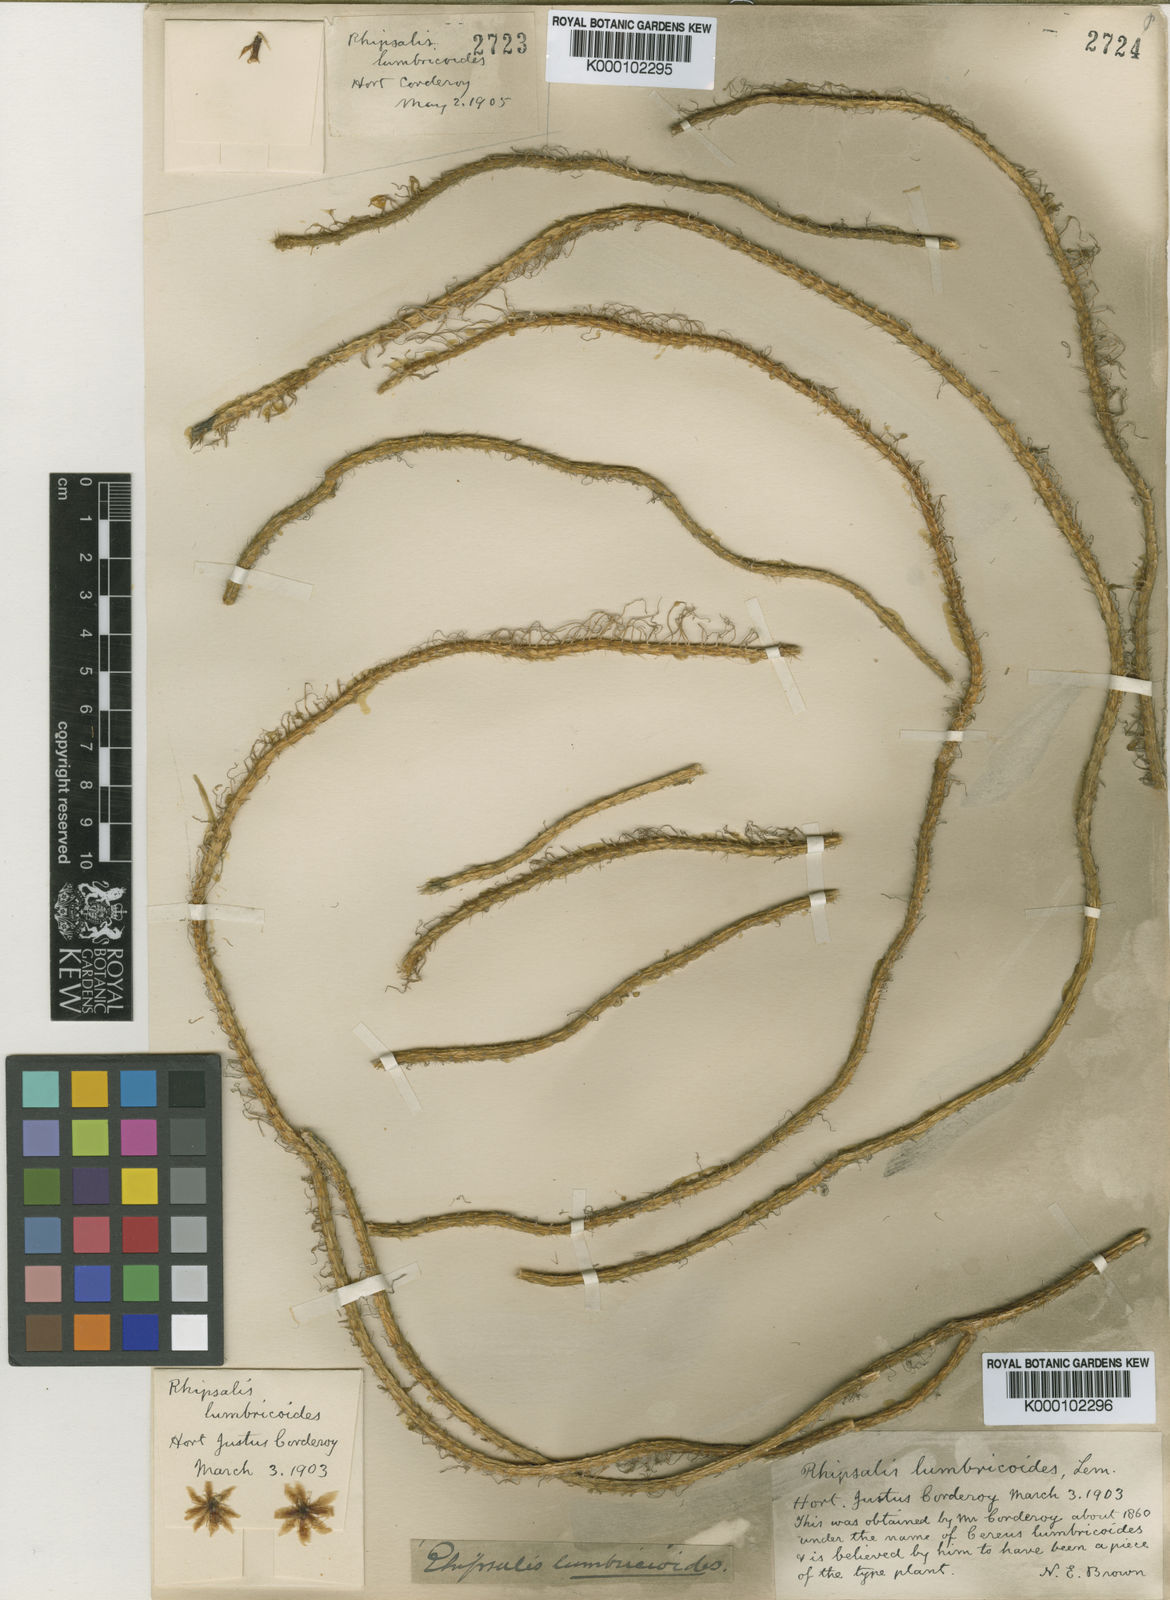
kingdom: Plantae
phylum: Tracheophyta
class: Magnoliopsida
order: Caryophyllales
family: Cactaceae
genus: Lepismium
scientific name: Lepismium lumbricoides
